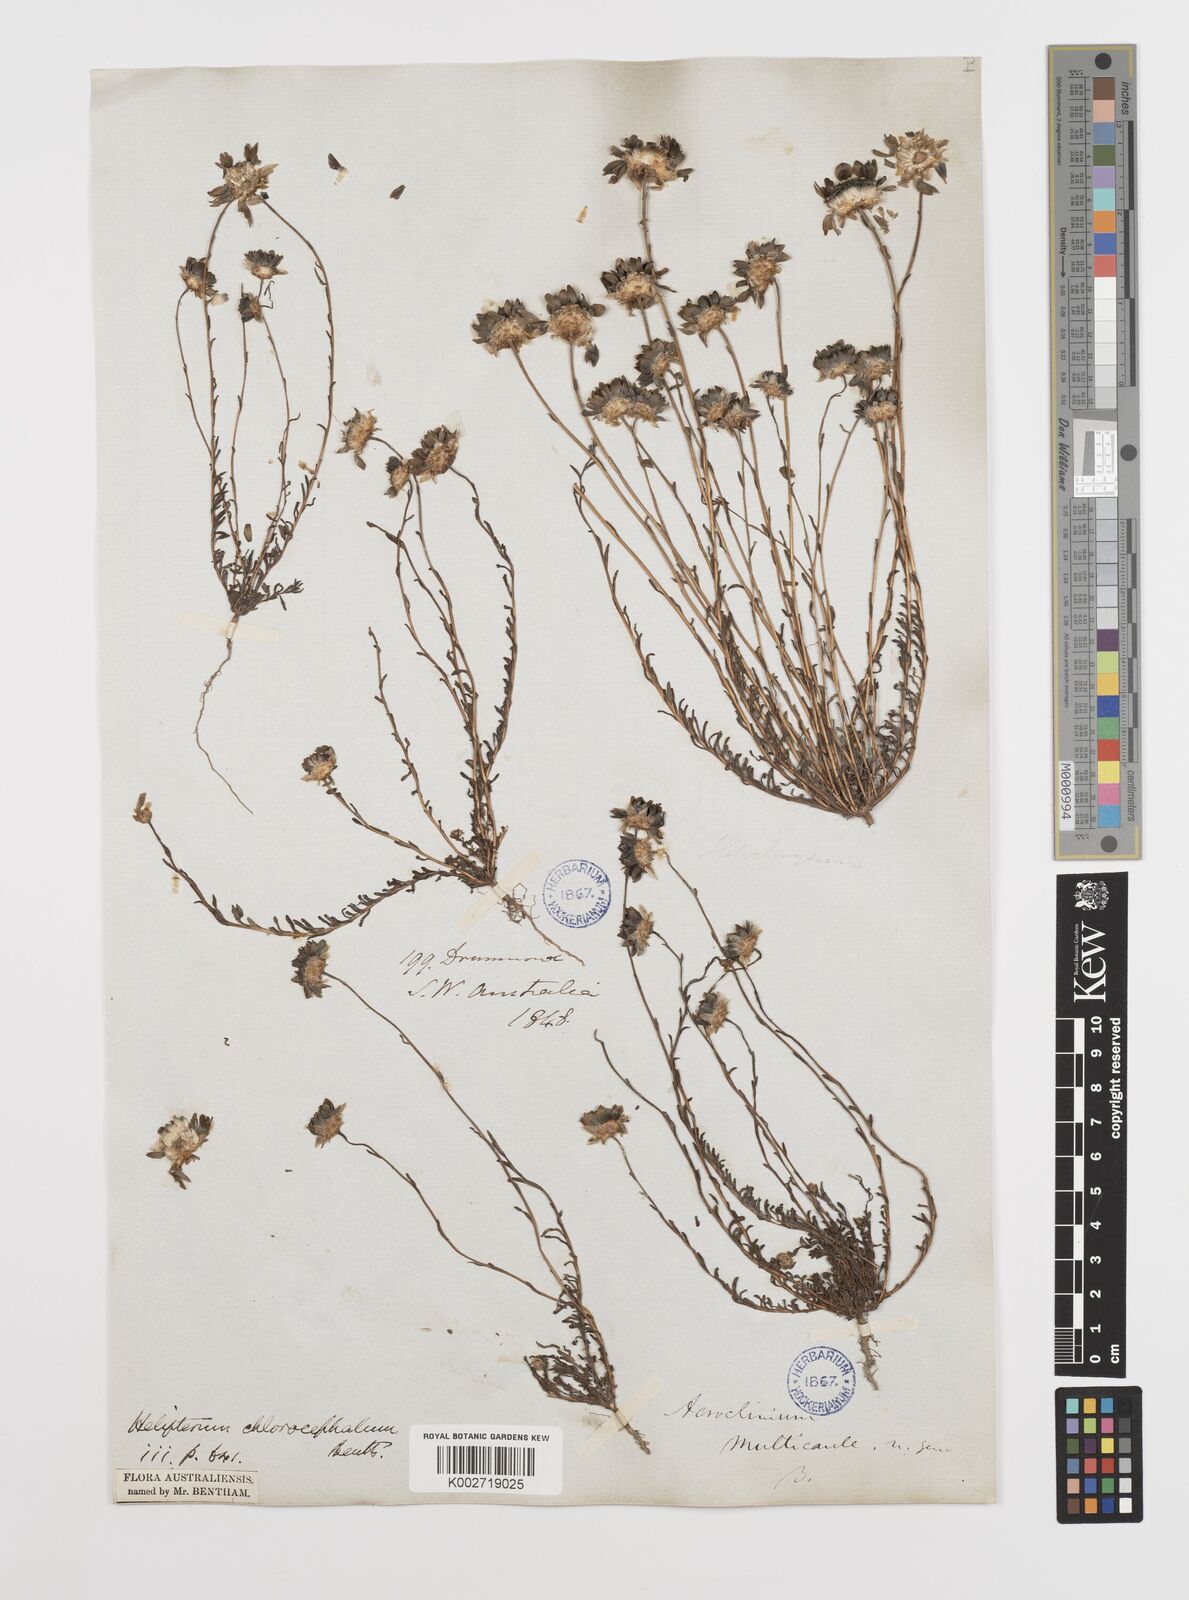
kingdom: Plantae
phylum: Tracheophyta
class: Magnoliopsida
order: Asterales
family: Asteraceae
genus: Rhodanthe
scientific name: Rhodanthe chlorocephala
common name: Rosy sunray
